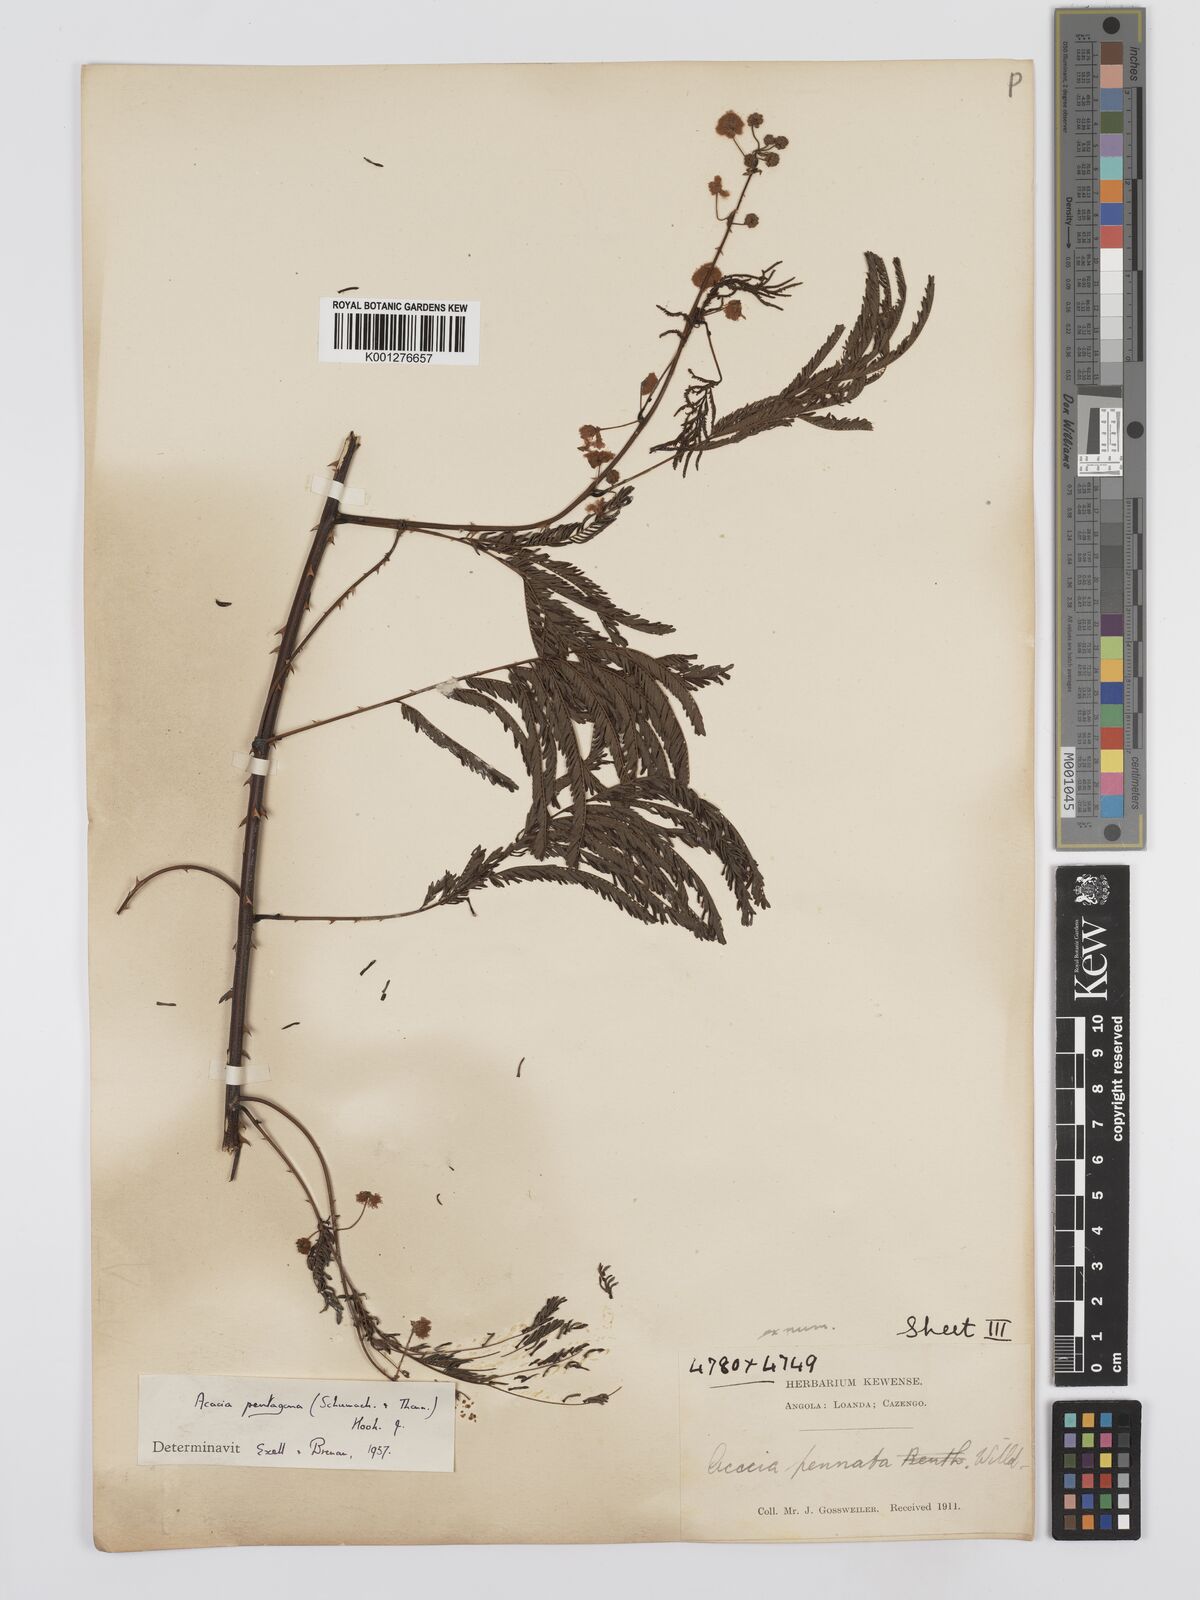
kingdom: Plantae
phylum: Tracheophyta
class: Magnoliopsida
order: Fabales
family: Fabaceae
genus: Senegalia
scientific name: Senegalia pentagona
